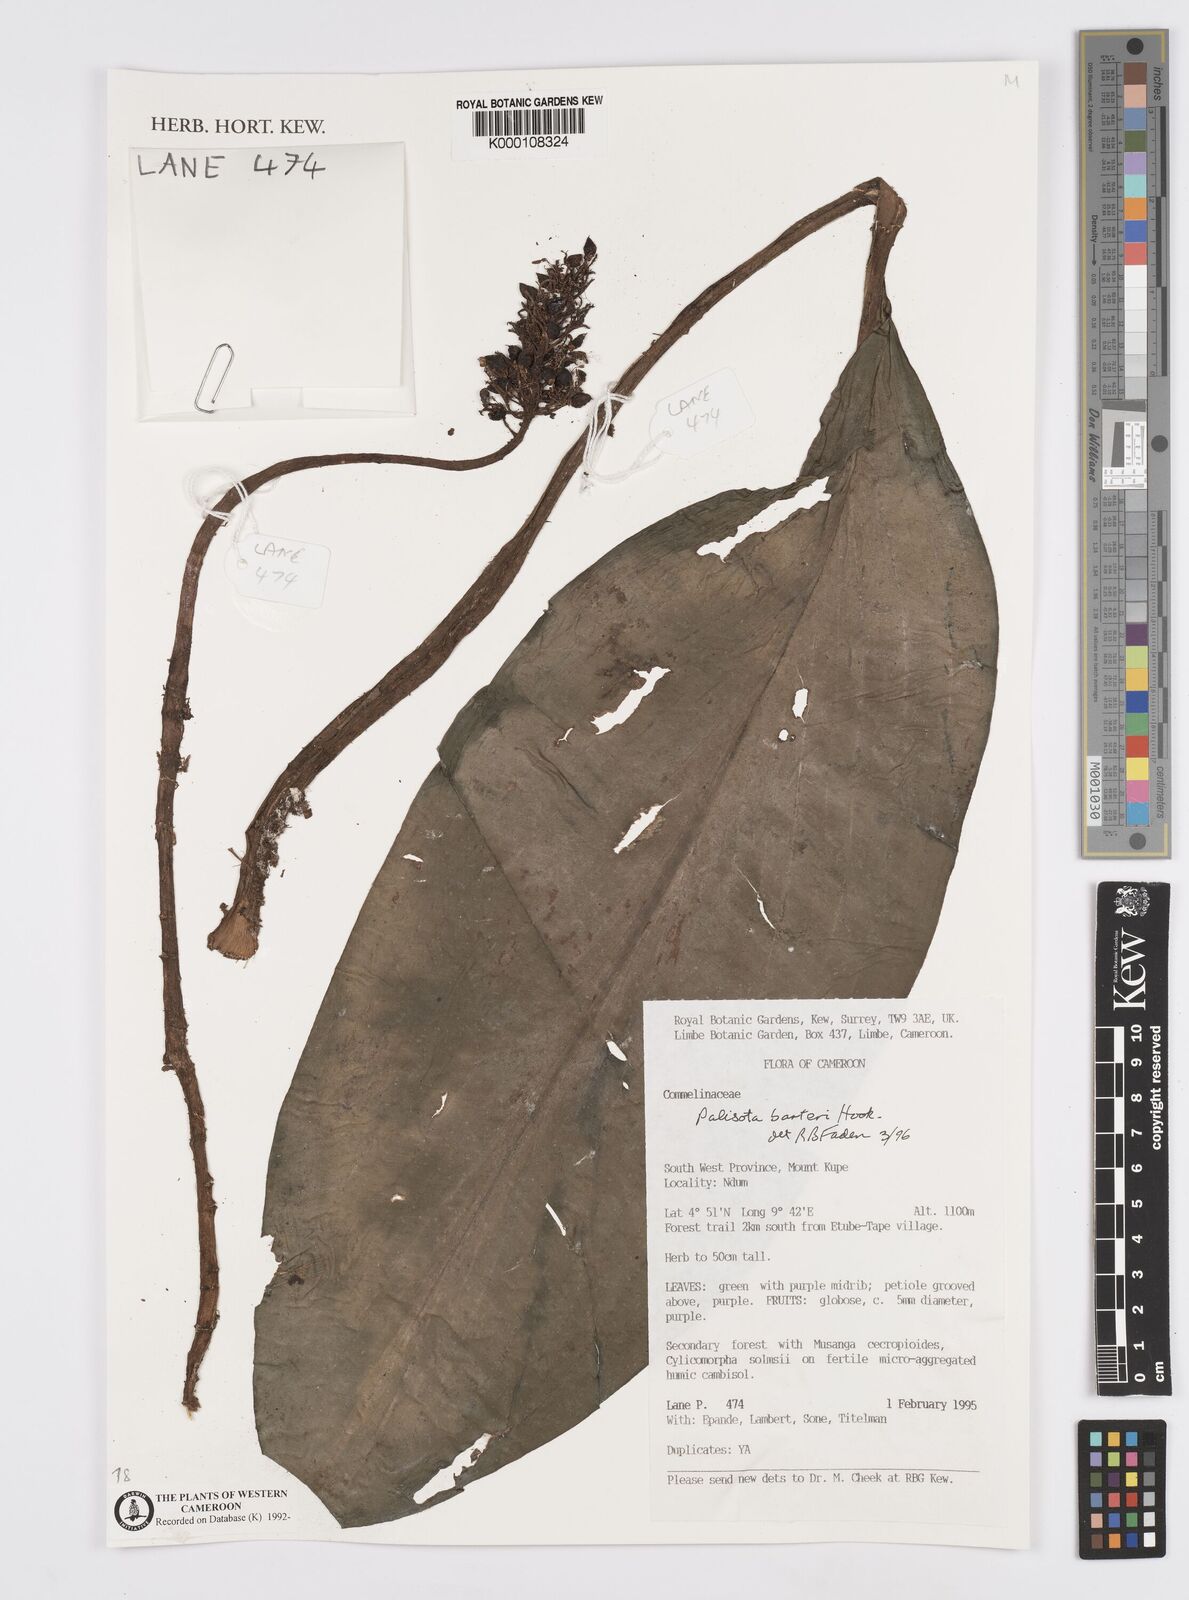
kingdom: Plantae
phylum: Tracheophyta
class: Liliopsida
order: Commelinales
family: Commelinaceae
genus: Palisota
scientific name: Palisota barteri
